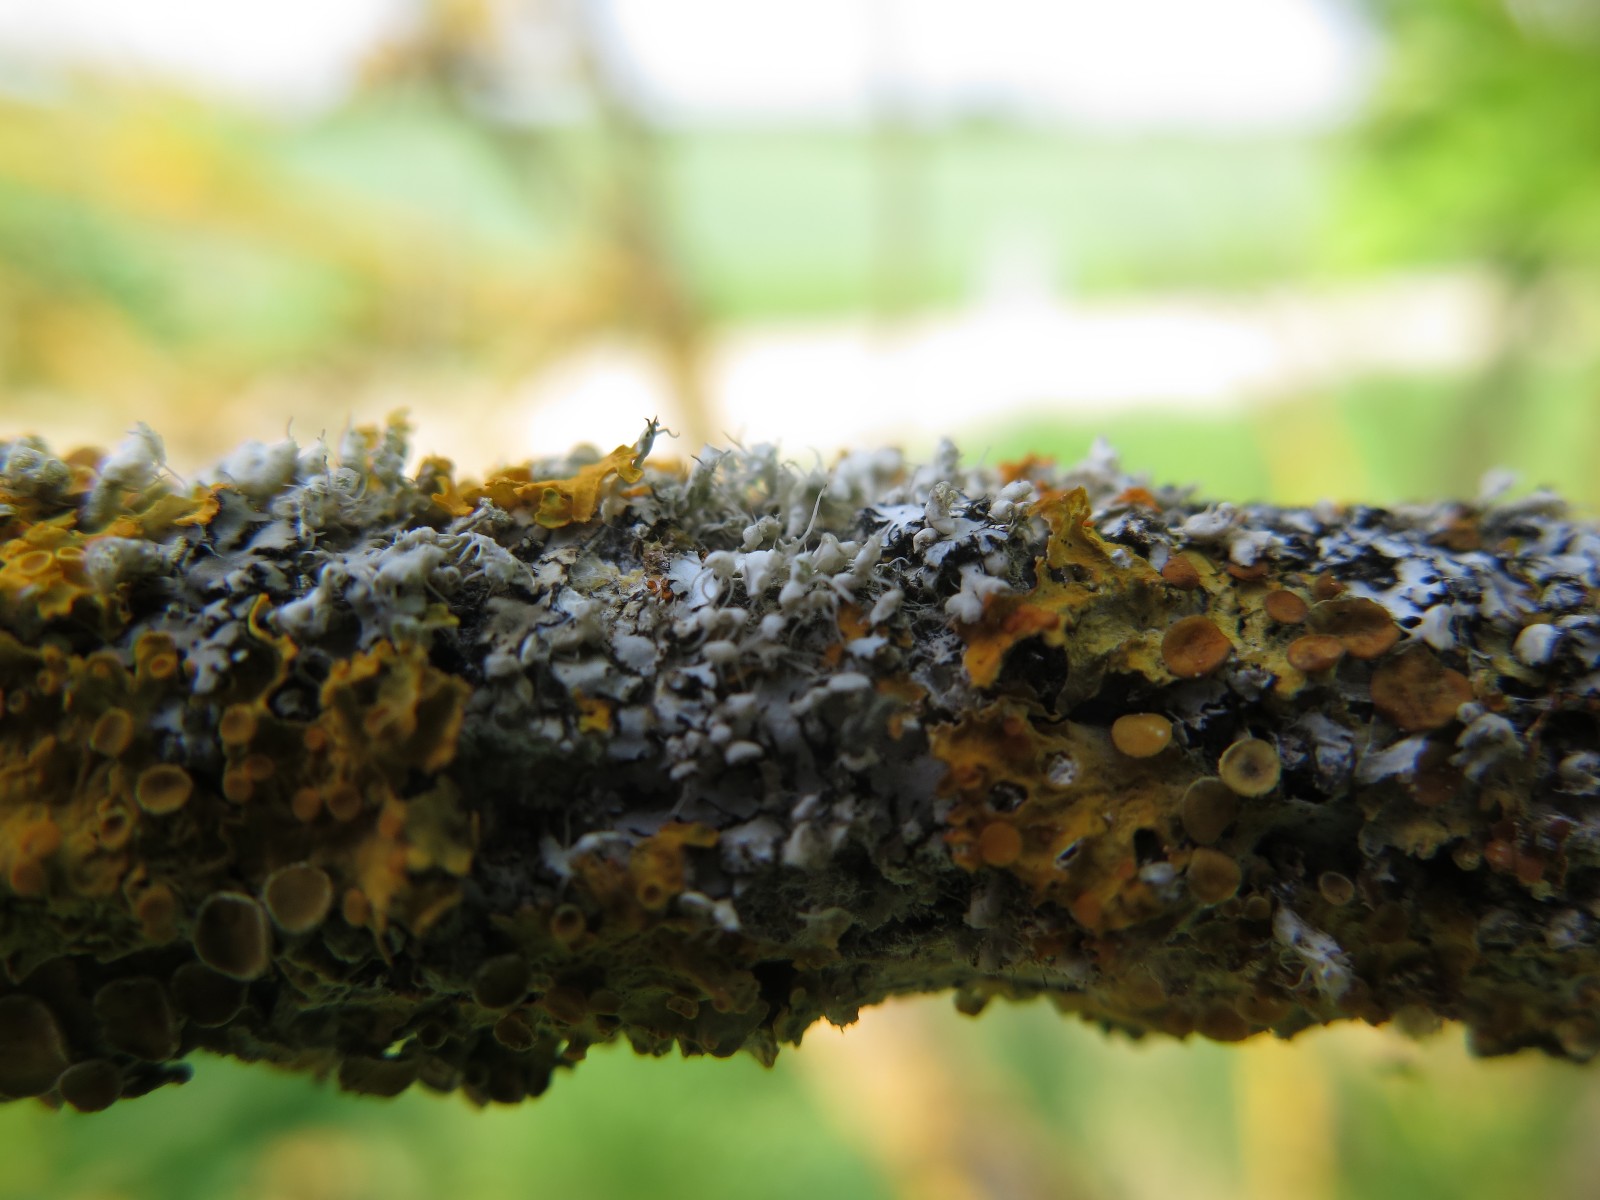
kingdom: Fungi
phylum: Ascomycota
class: Lecanoromycetes
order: Teloschistales
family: Teloschistaceae
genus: Xanthoria
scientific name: Xanthoria parietina
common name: almindelig væggelav
